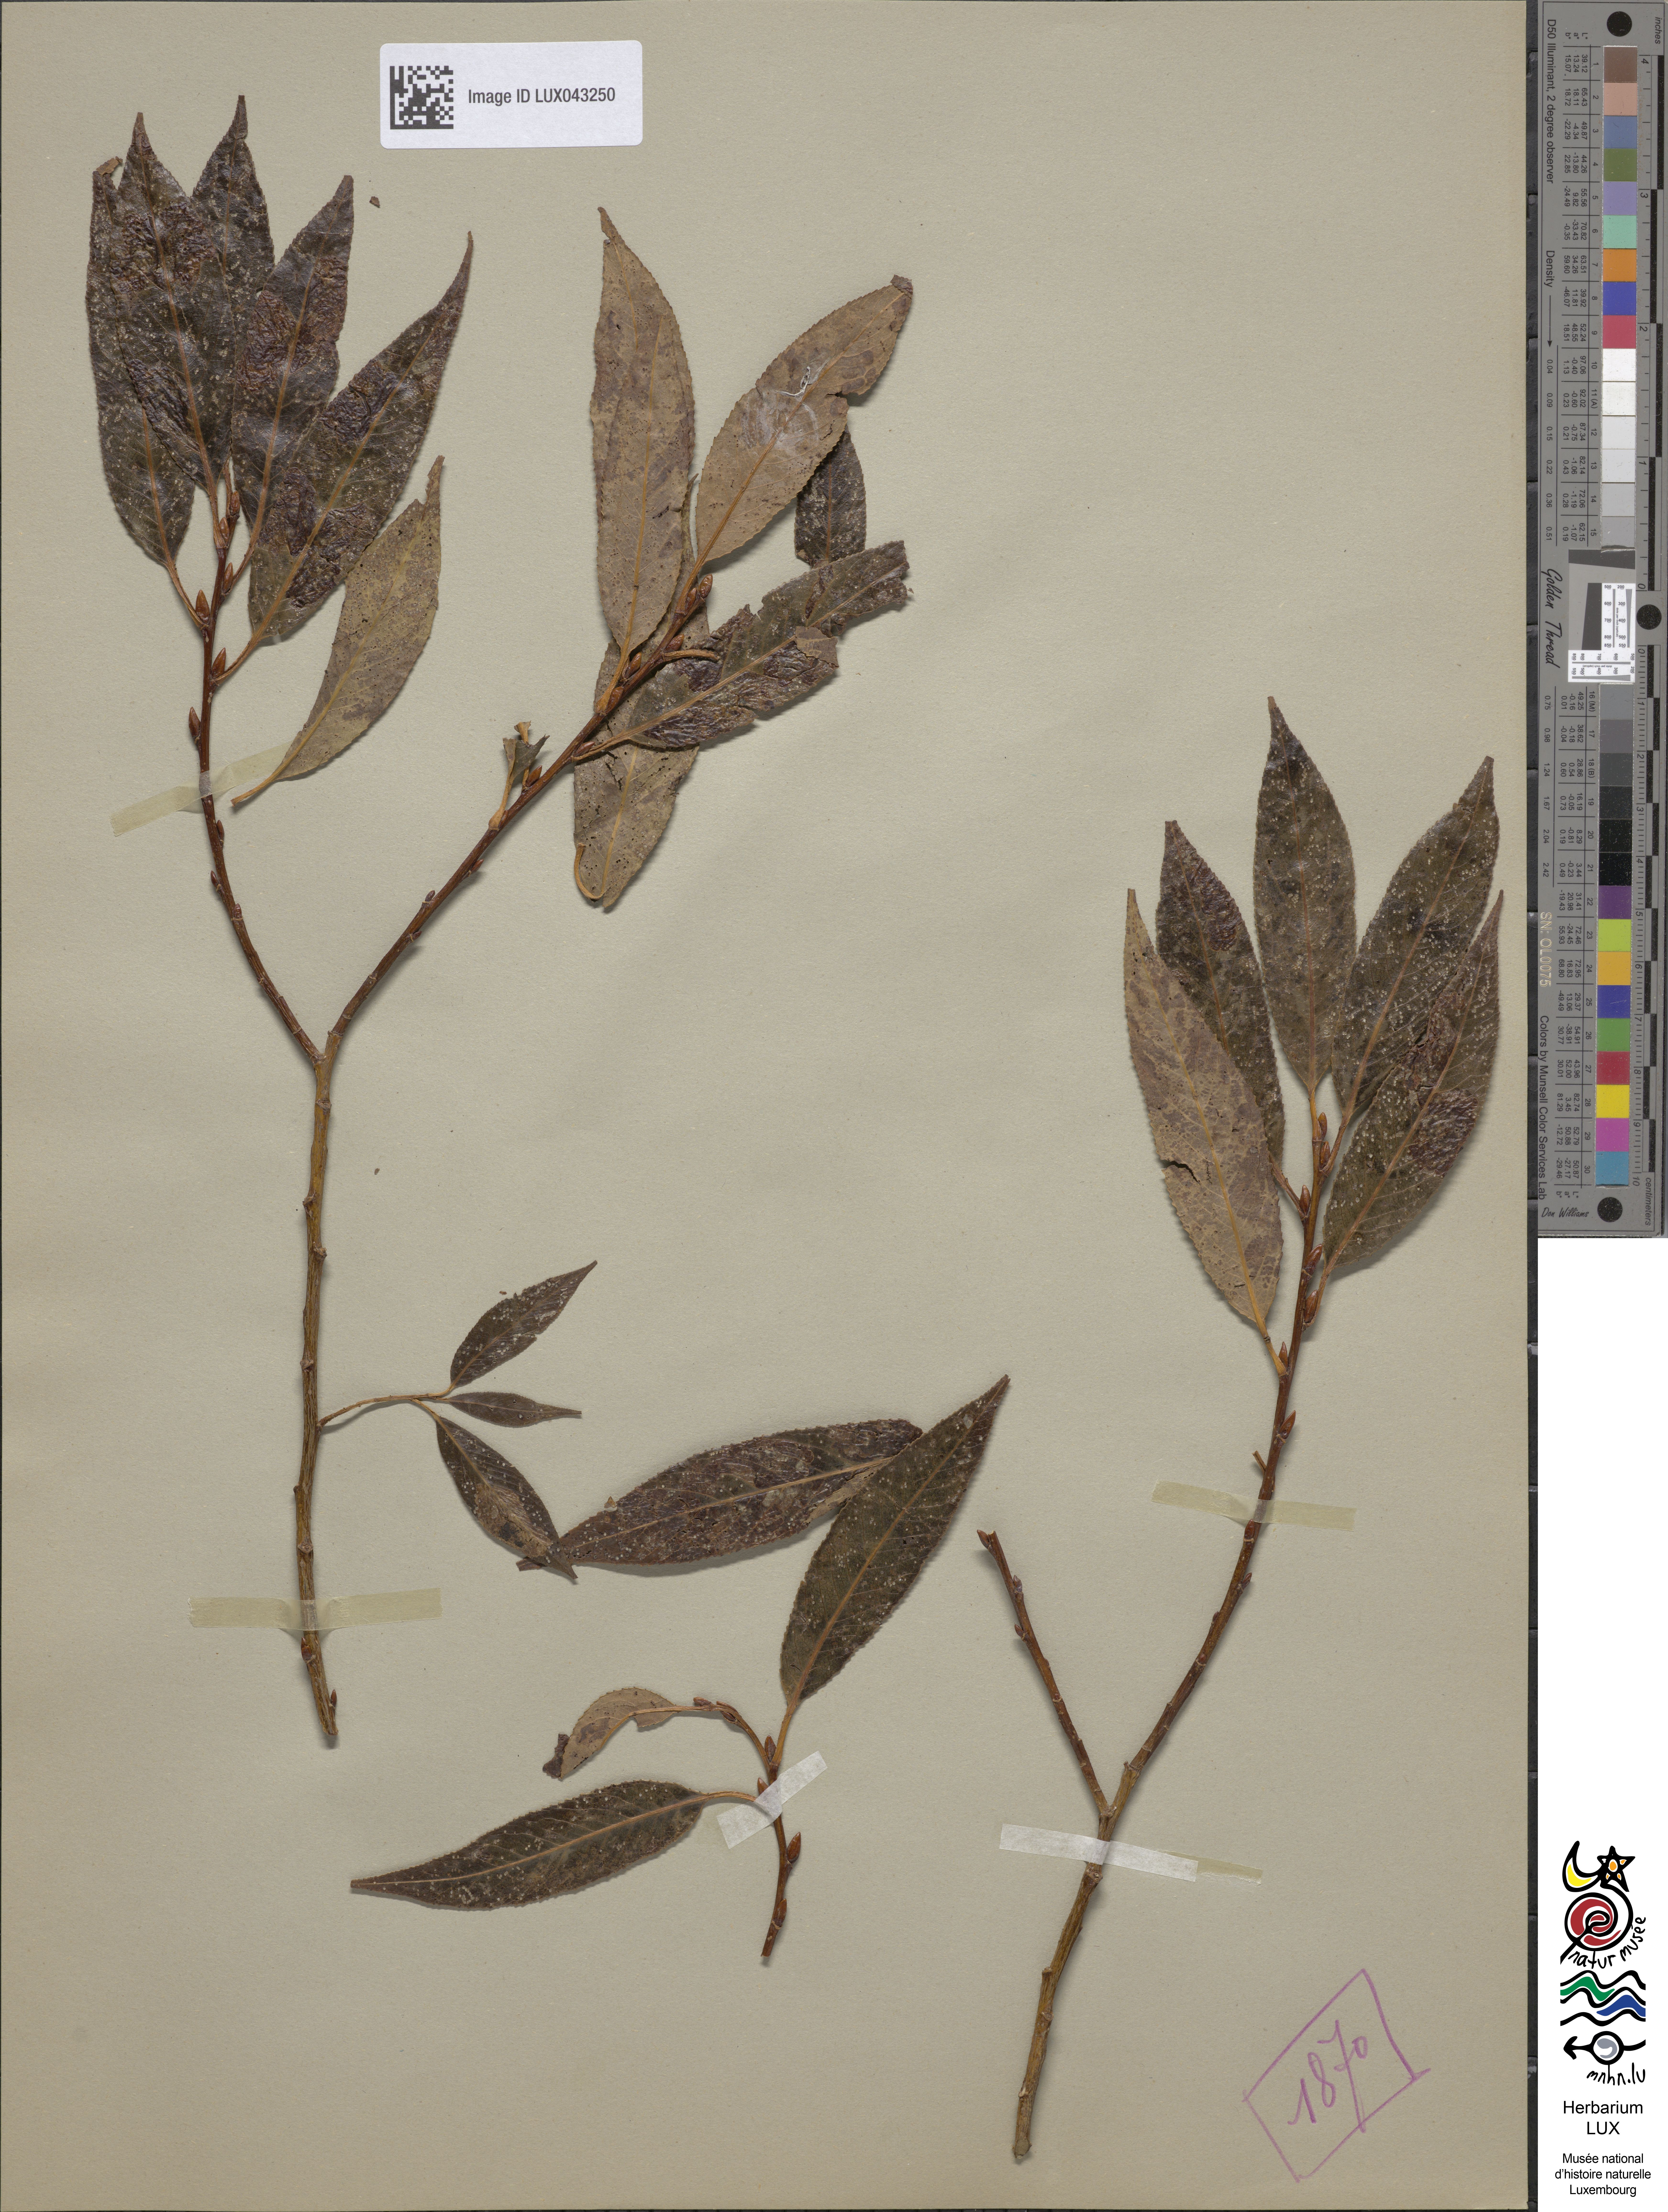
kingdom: Plantae
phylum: Tracheophyta
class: Magnoliopsida
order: Malpighiales
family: Salicaceae
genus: Salix
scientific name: Salix
